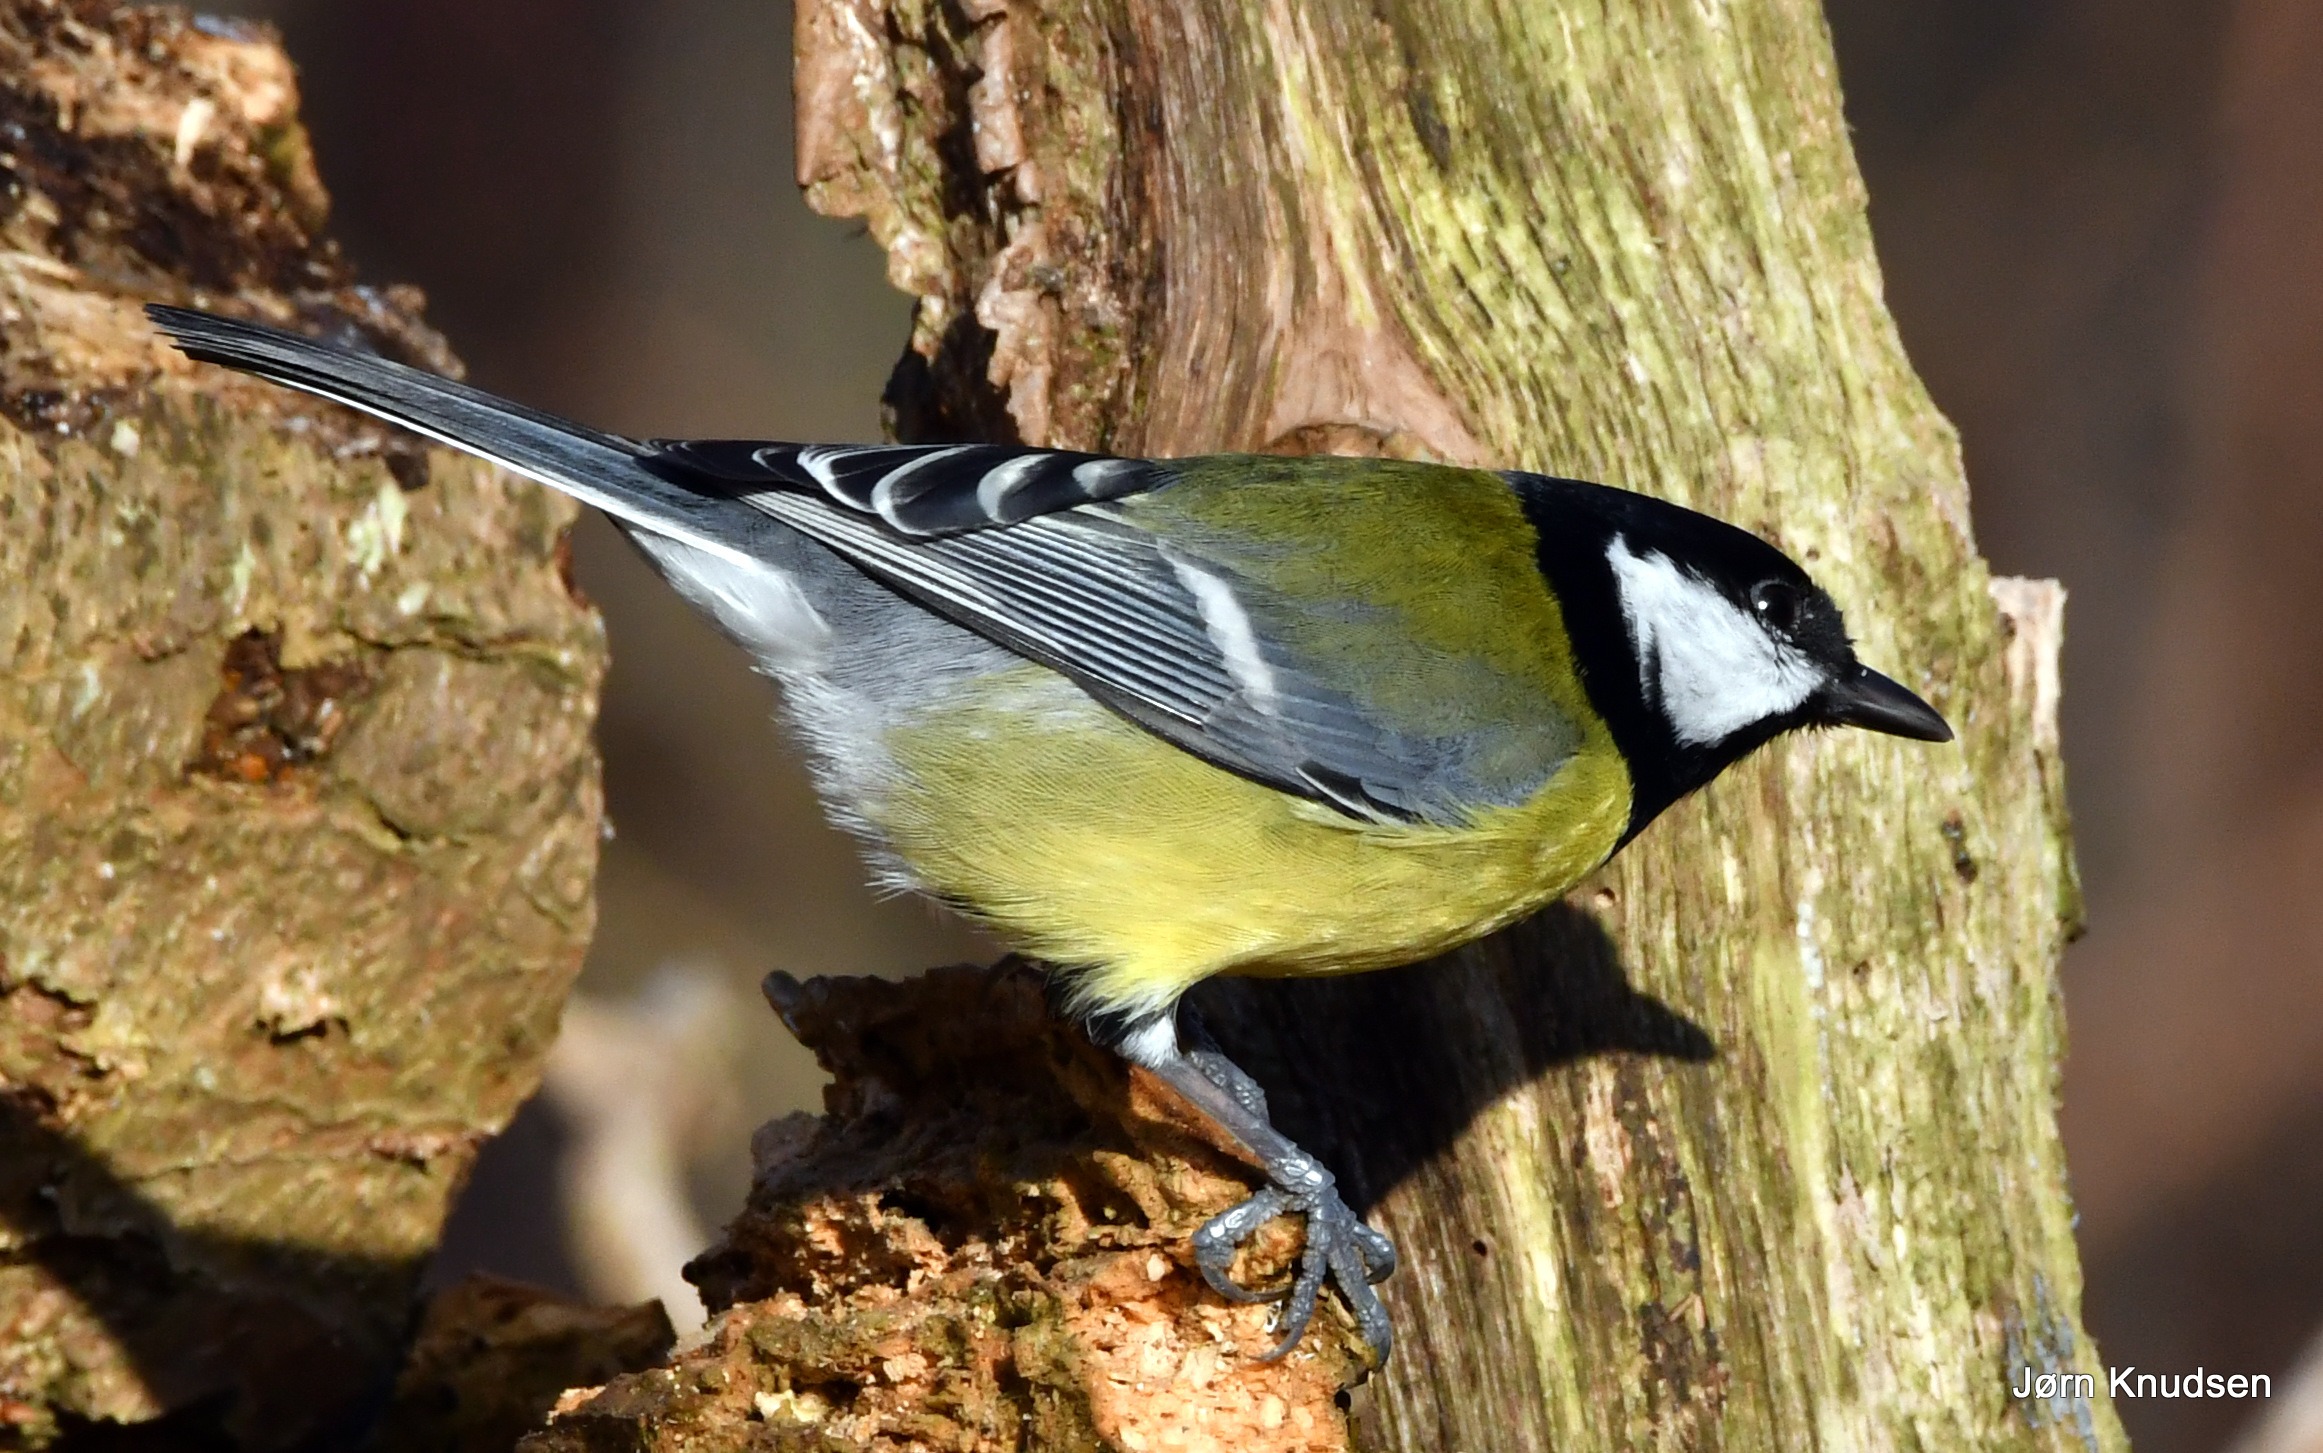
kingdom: Animalia
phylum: Chordata
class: Aves
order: Passeriformes
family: Paridae
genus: Parus
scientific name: Parus major
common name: Musvit
